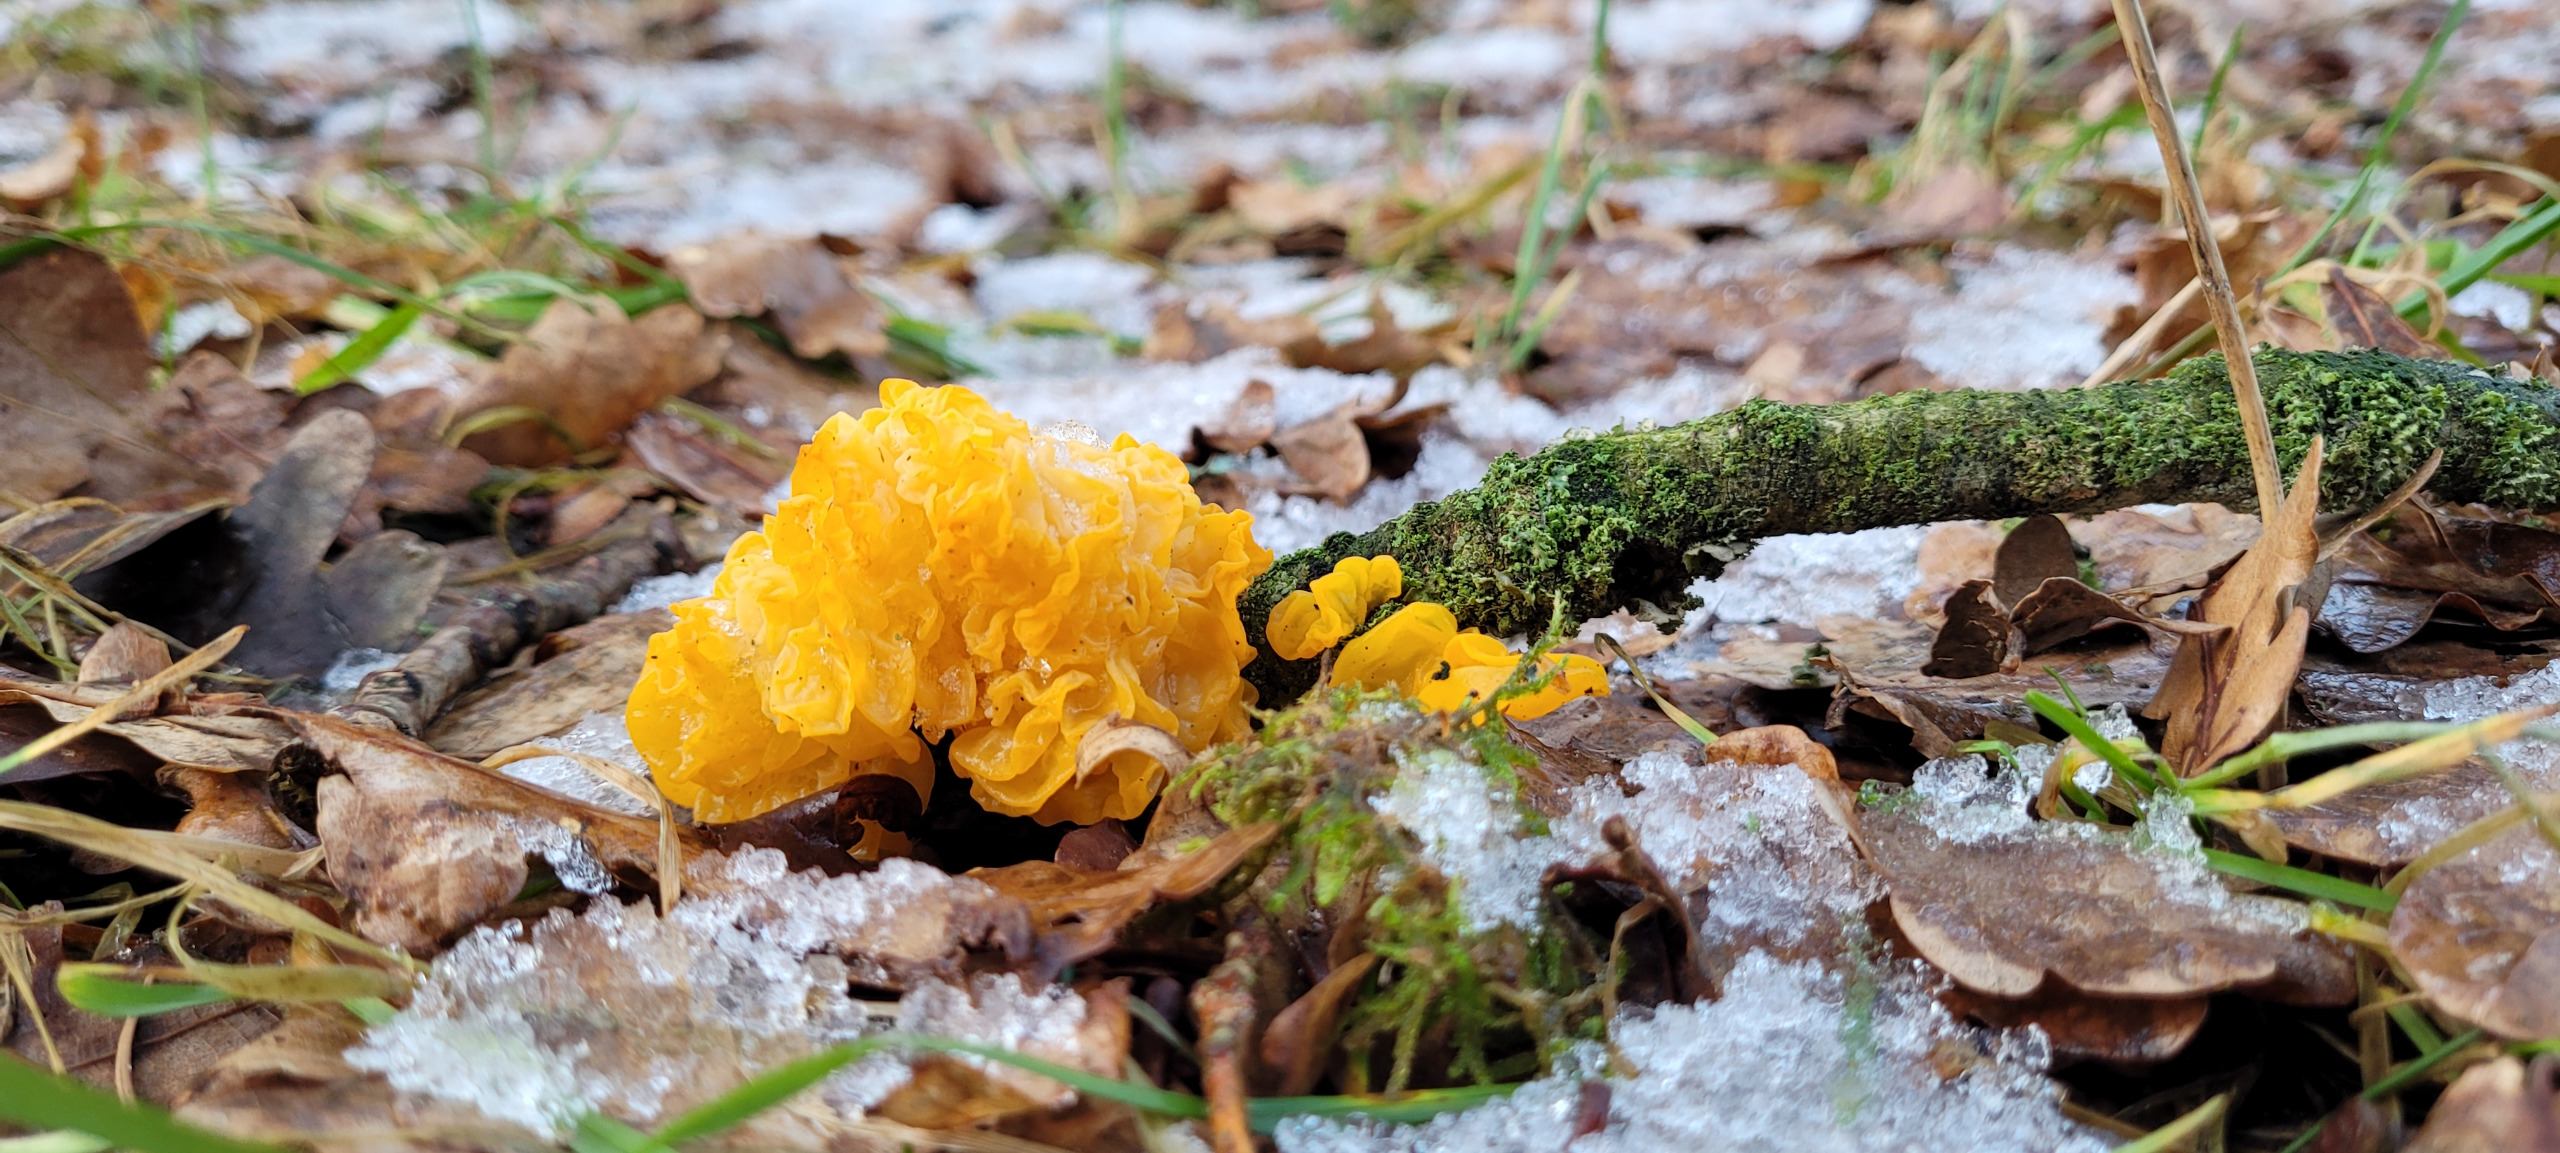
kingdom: Fungi
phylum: Basidiomycota
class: Tremellomycetes
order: Tremellales
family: Tremellaceae
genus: Tremella
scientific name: Tremella mesenterica
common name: Gul bævresvamp
